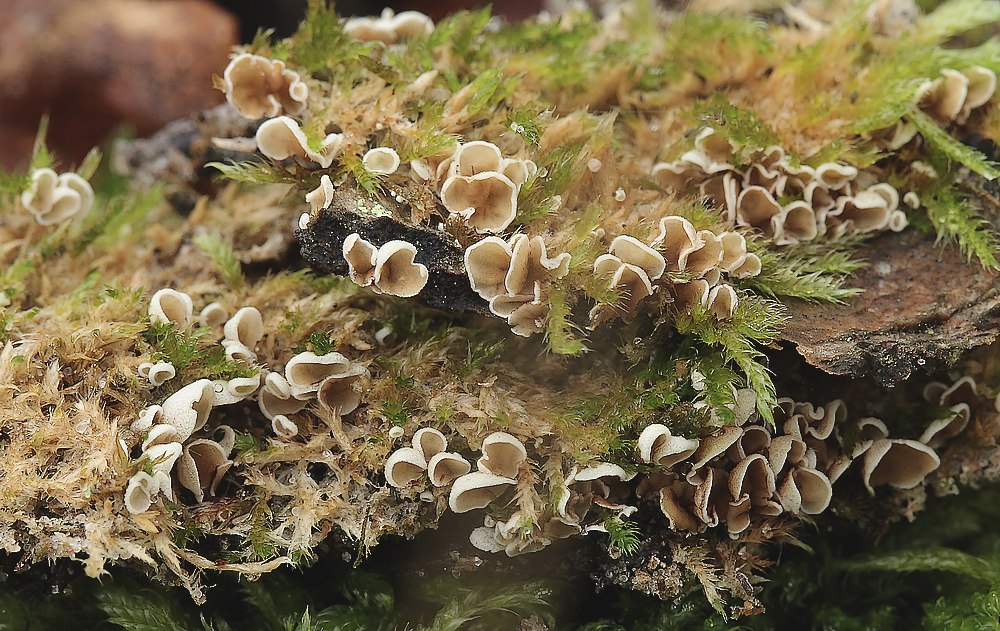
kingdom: Fungi
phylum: Basidiomycota
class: Agaricomycetes
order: Agaricales
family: Chromocyphellaceae
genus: Chromocyphella
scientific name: Chromocyphella muscicola
